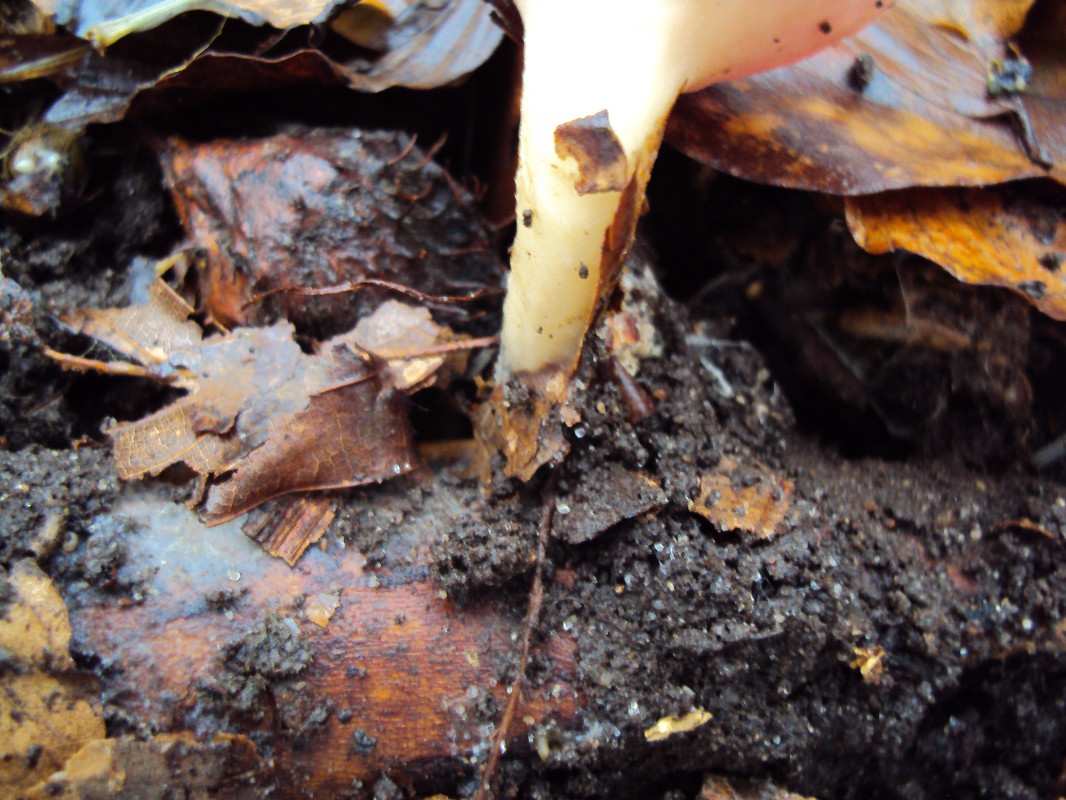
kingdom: Fungi
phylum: Ascomycota
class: Pezizomycetes
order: Pezizales
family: Sarcoscyphaceae
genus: Sarcoscypha
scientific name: Sarcoscypha austriaca
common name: krølhåret pragtbæger
